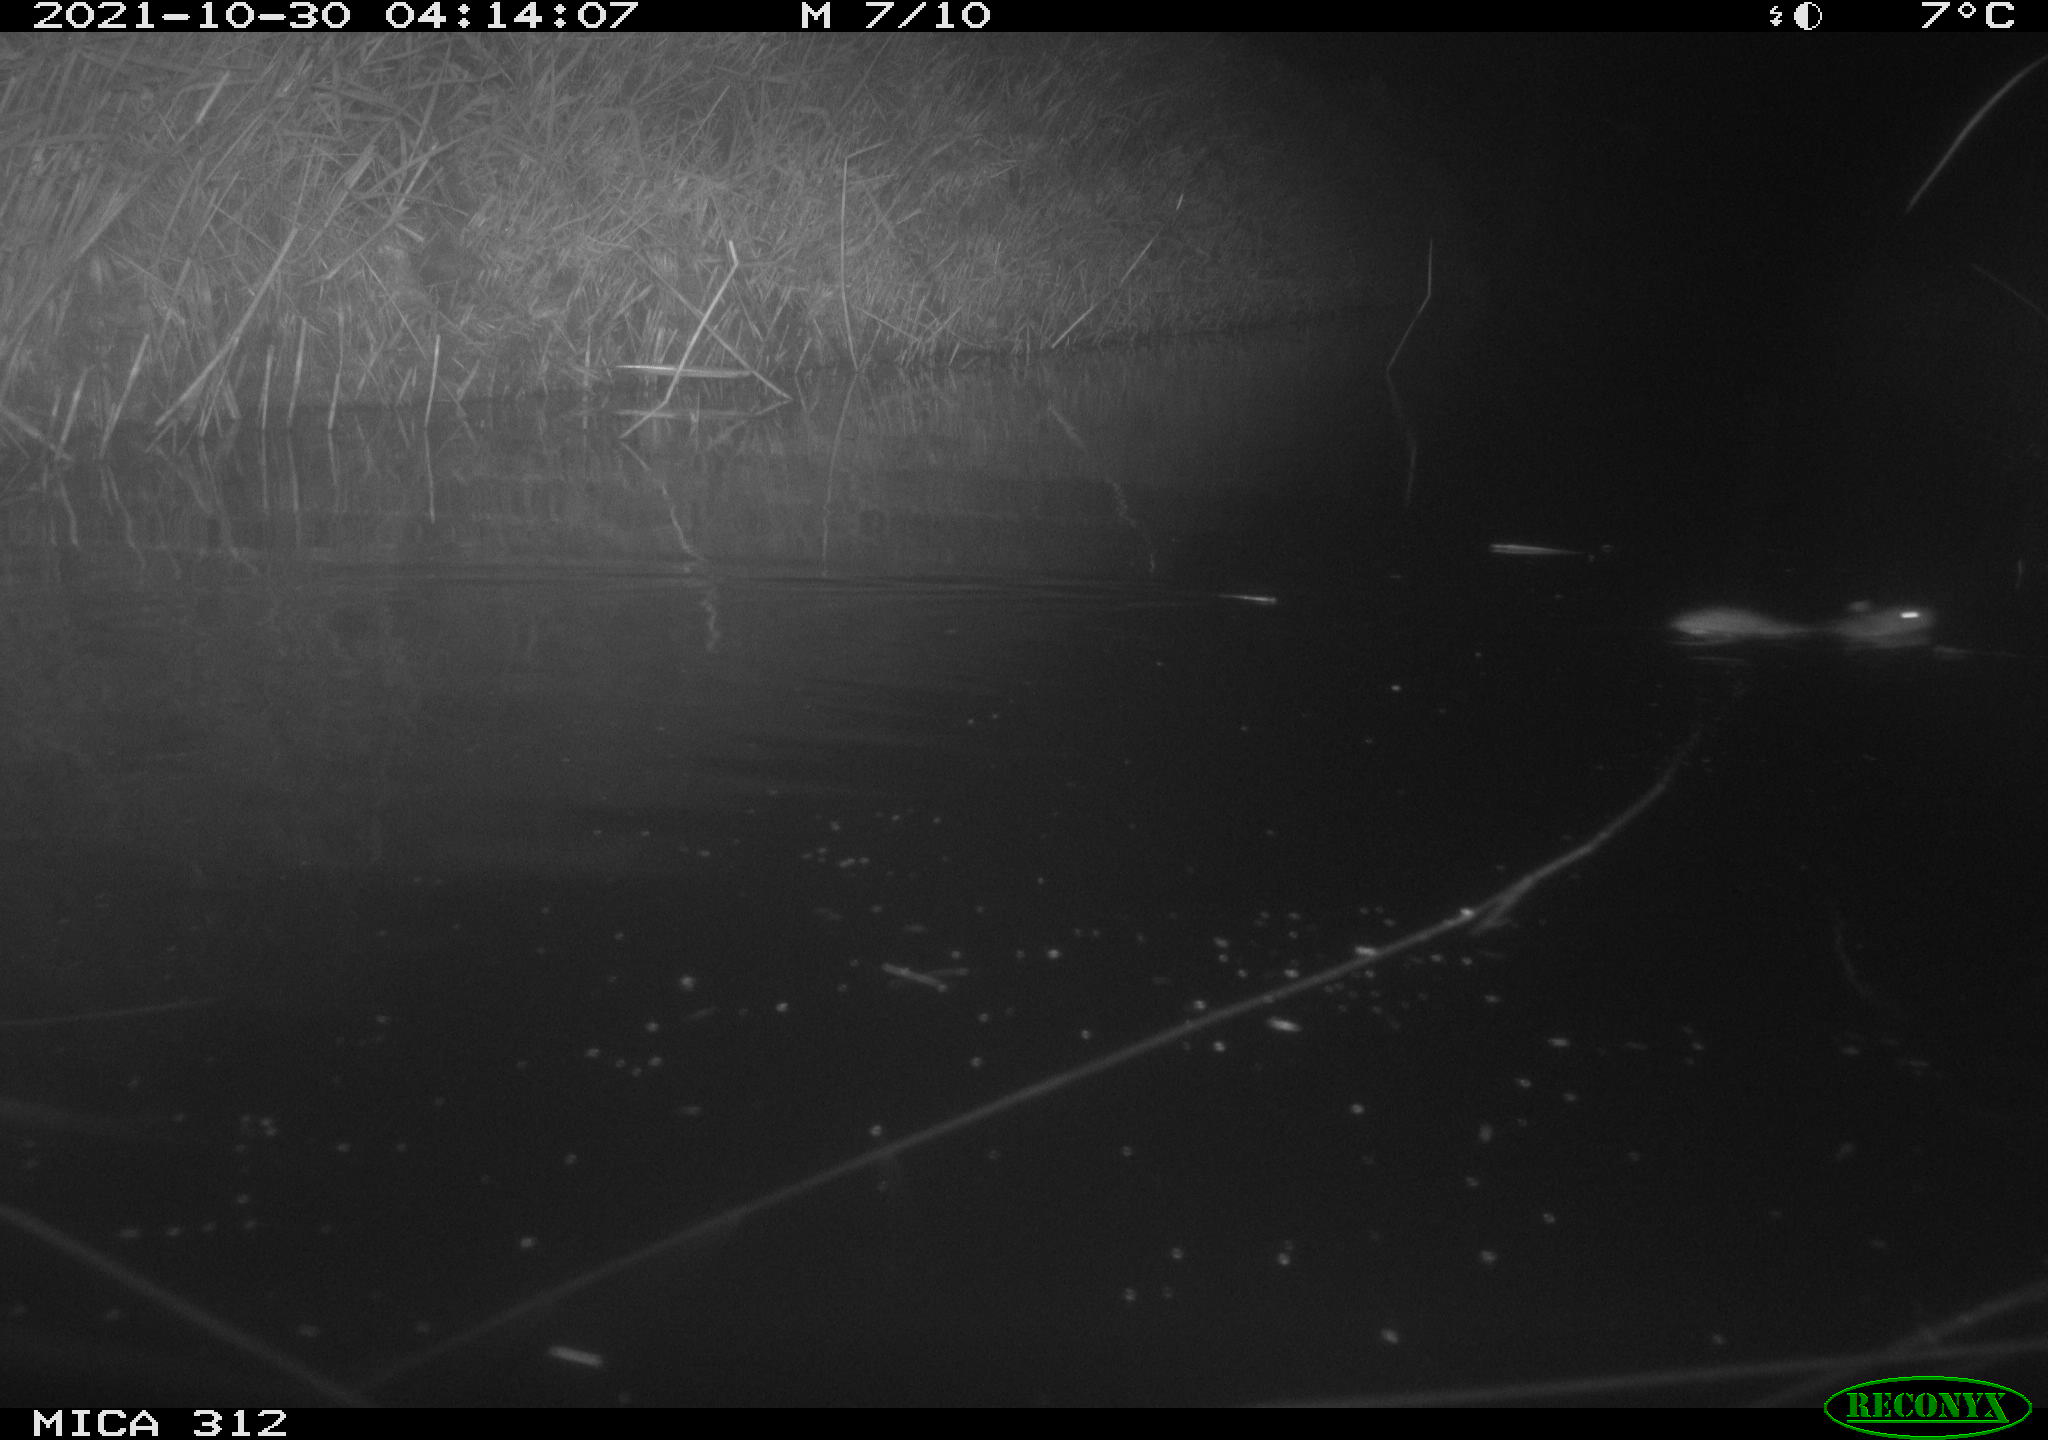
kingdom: Animalia
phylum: Chordata
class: Mammalia
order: Rodentia
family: Muridae
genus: Rattus
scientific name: Rattus norvegicus
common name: Brown rat
